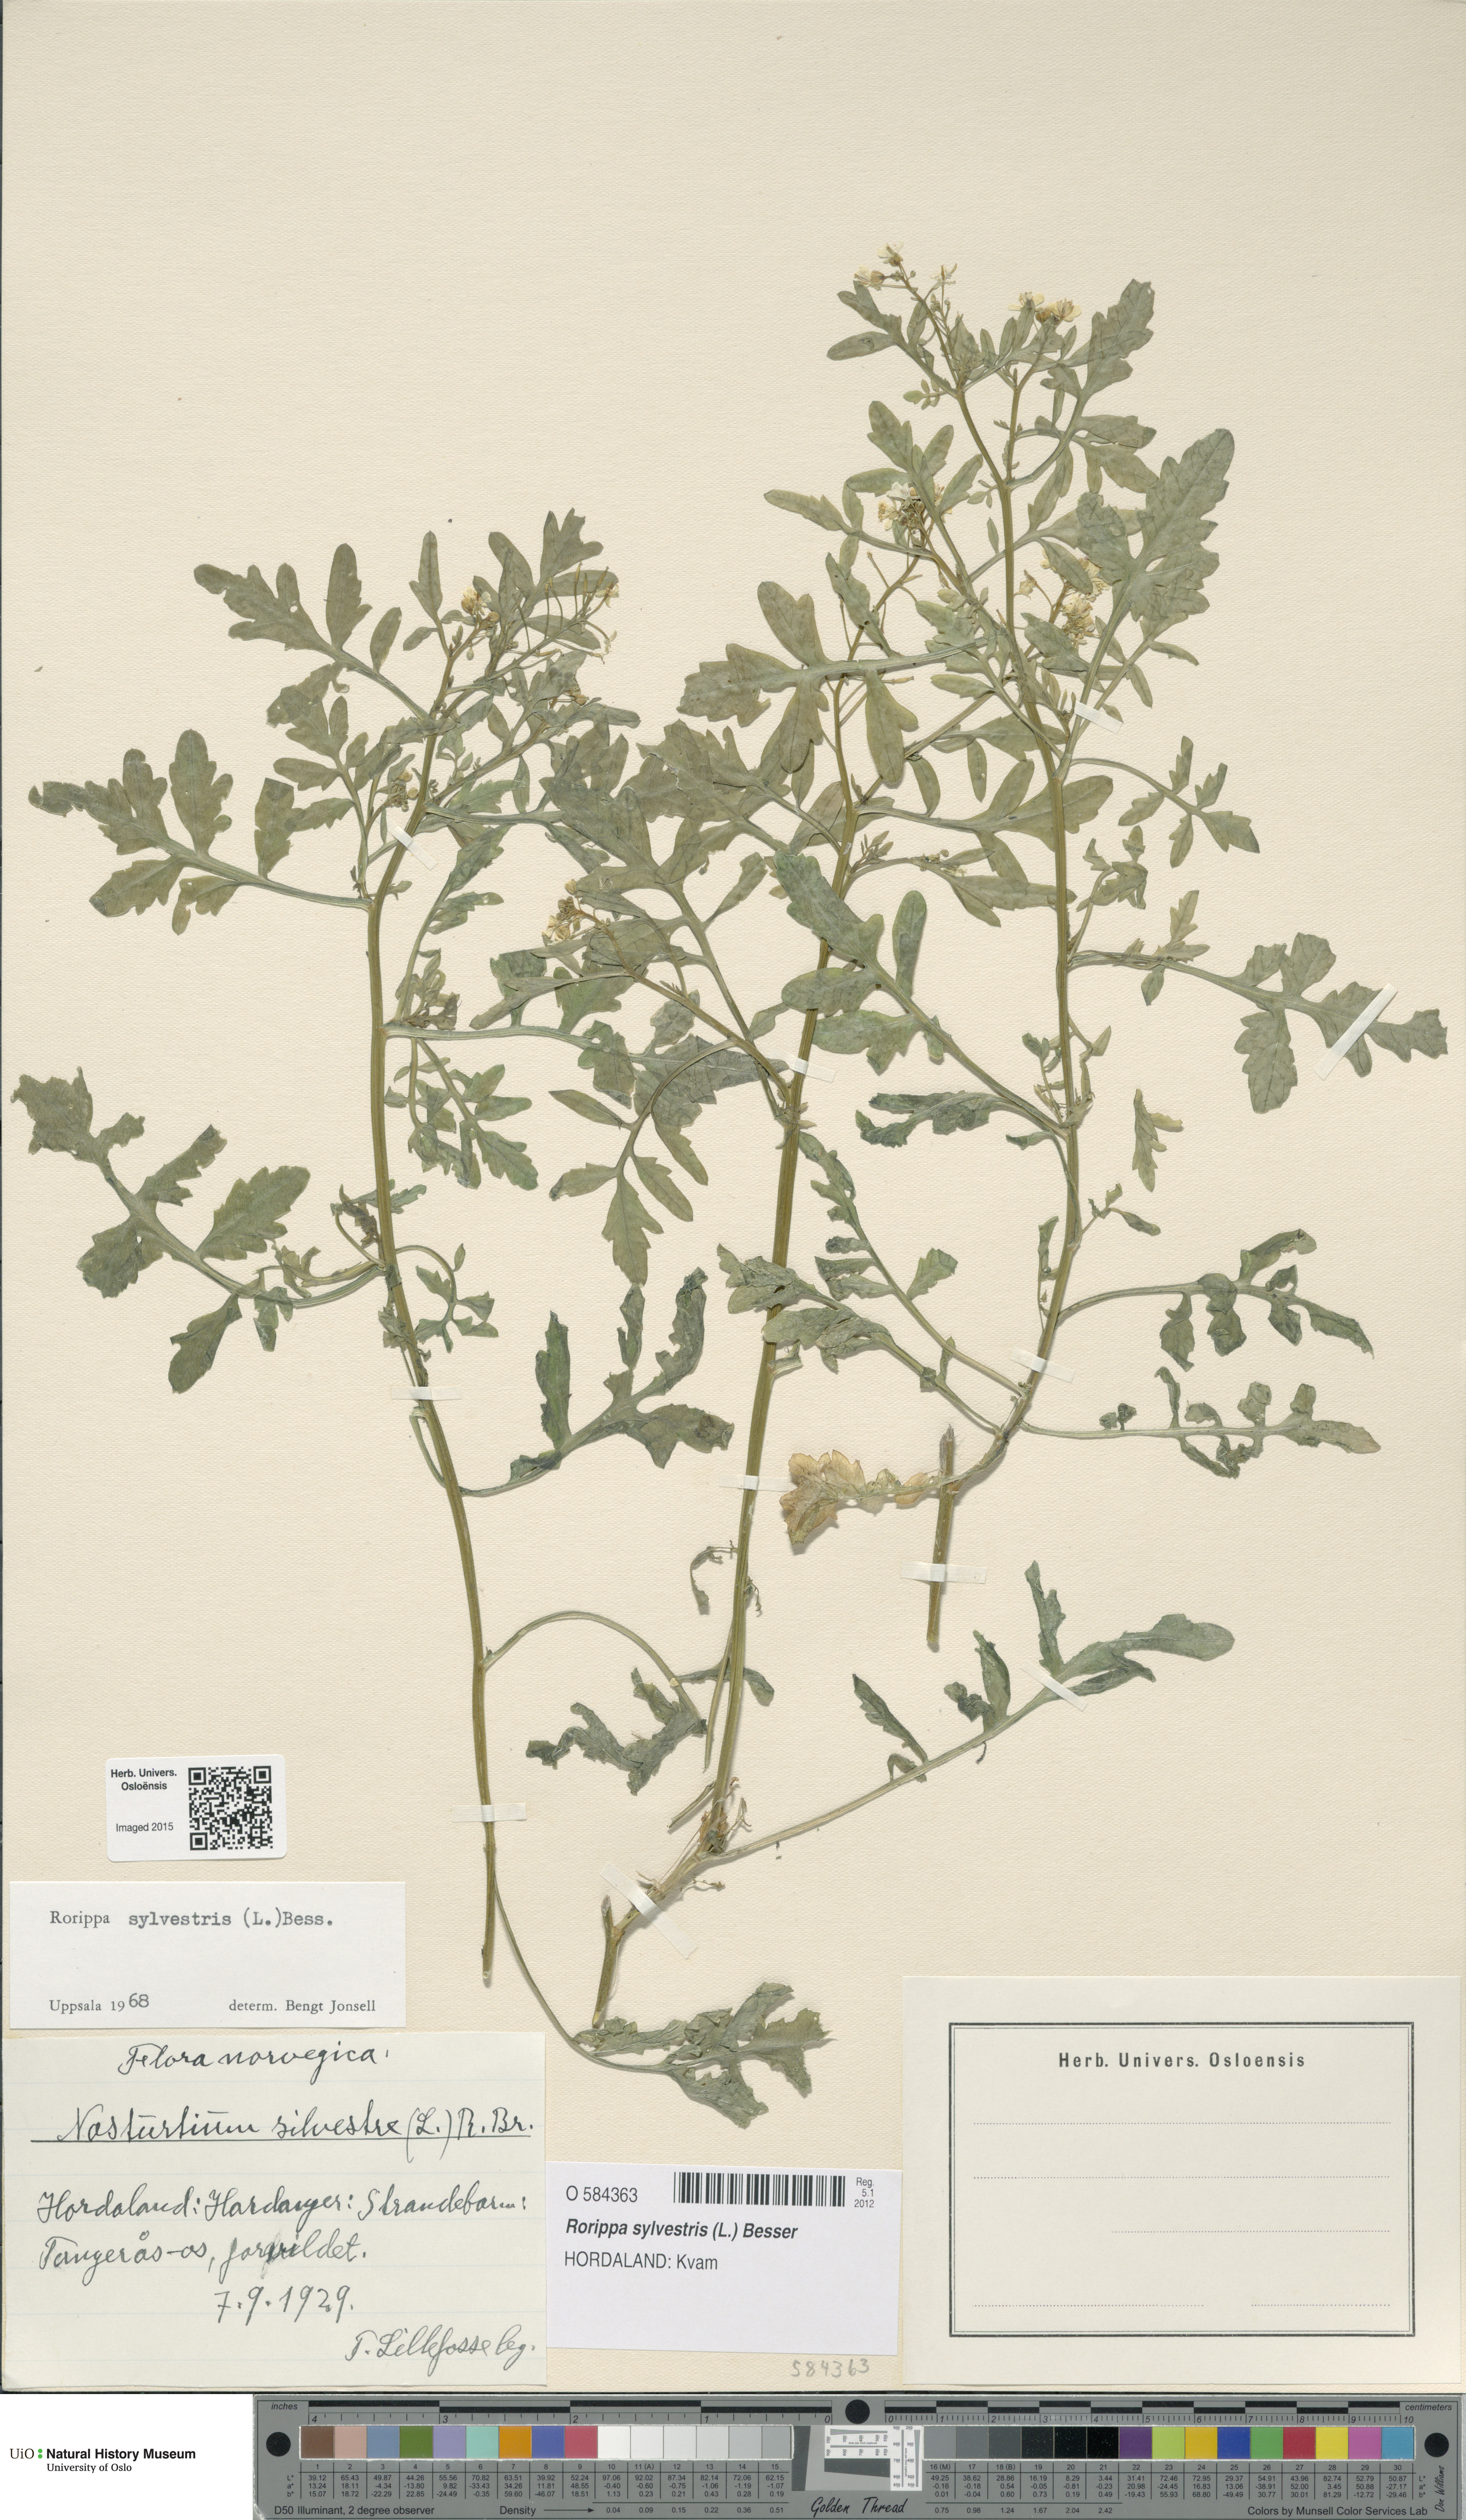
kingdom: Plantae
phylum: Tracheophyta
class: Magnoliopsida
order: Brassicales
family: Brassicaceae
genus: Rorippa
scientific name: Rorippa sylvestris
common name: Creeping yellowcress
